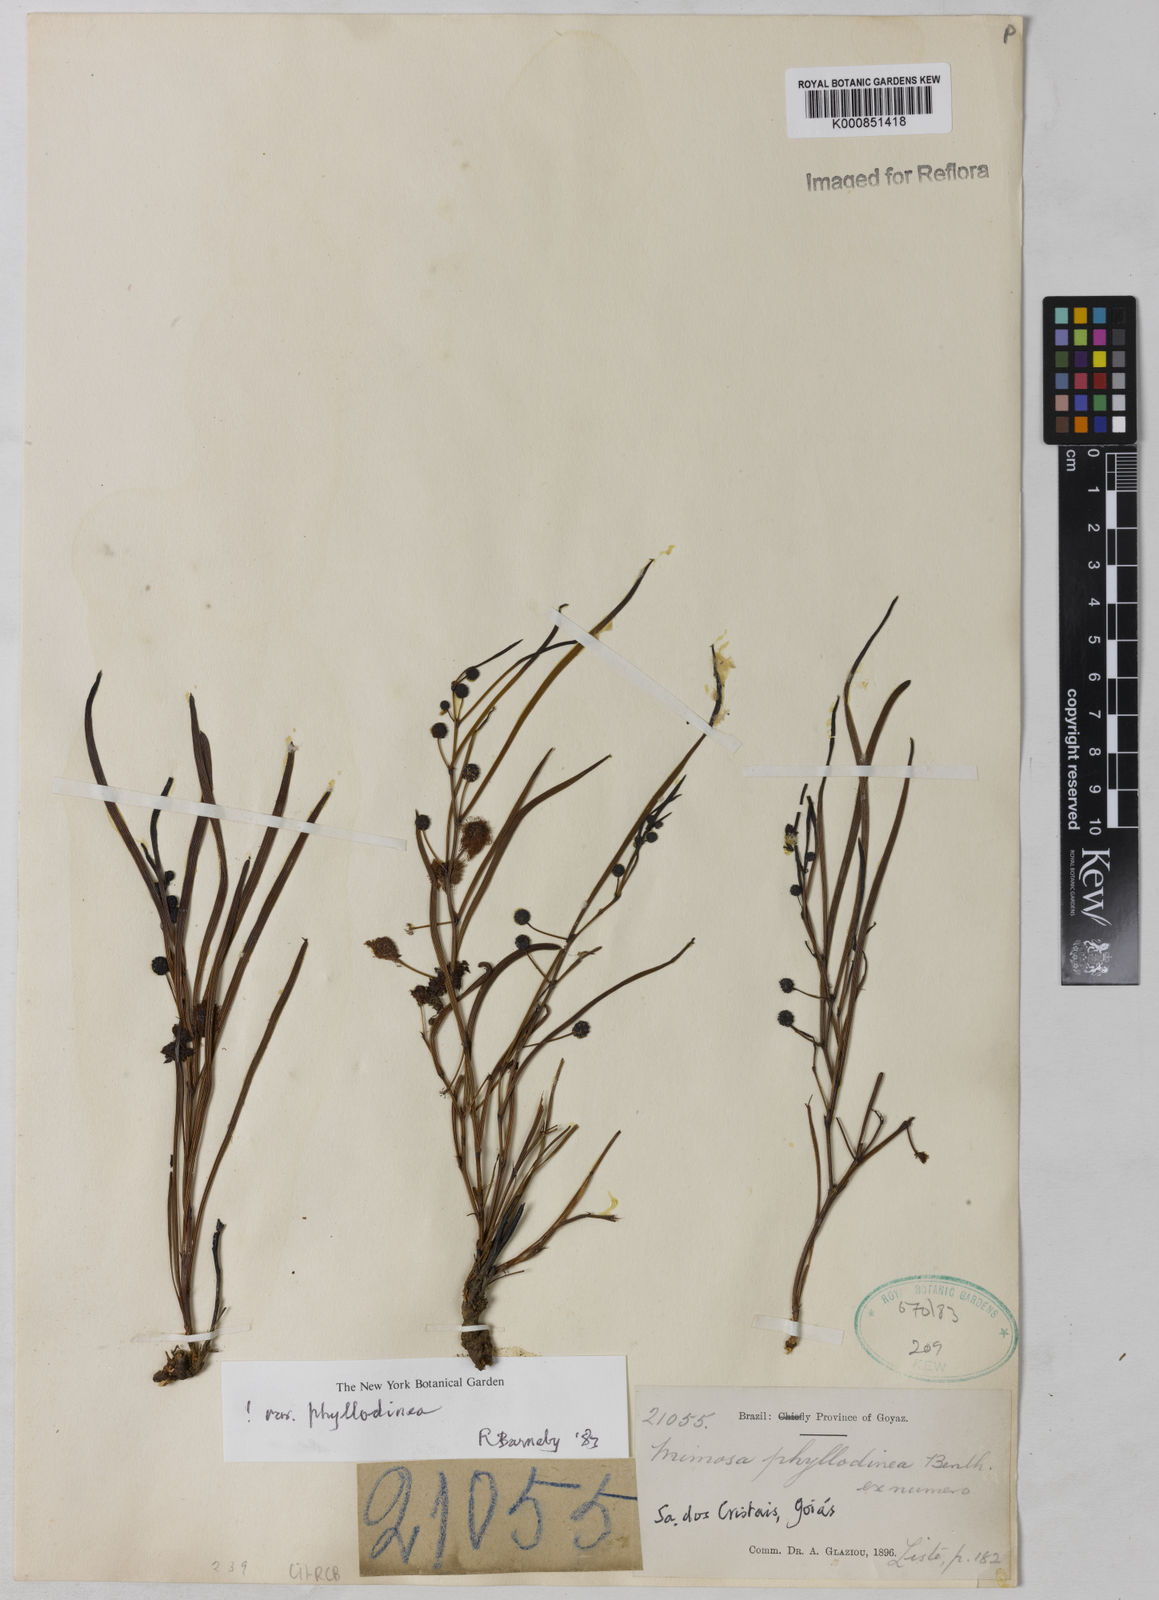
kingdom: Plantae
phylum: Tracheophyta
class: Magnoliopsida
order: Fabales
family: Fabaceae
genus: Mimosa
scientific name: Mimosa phyllodinea
